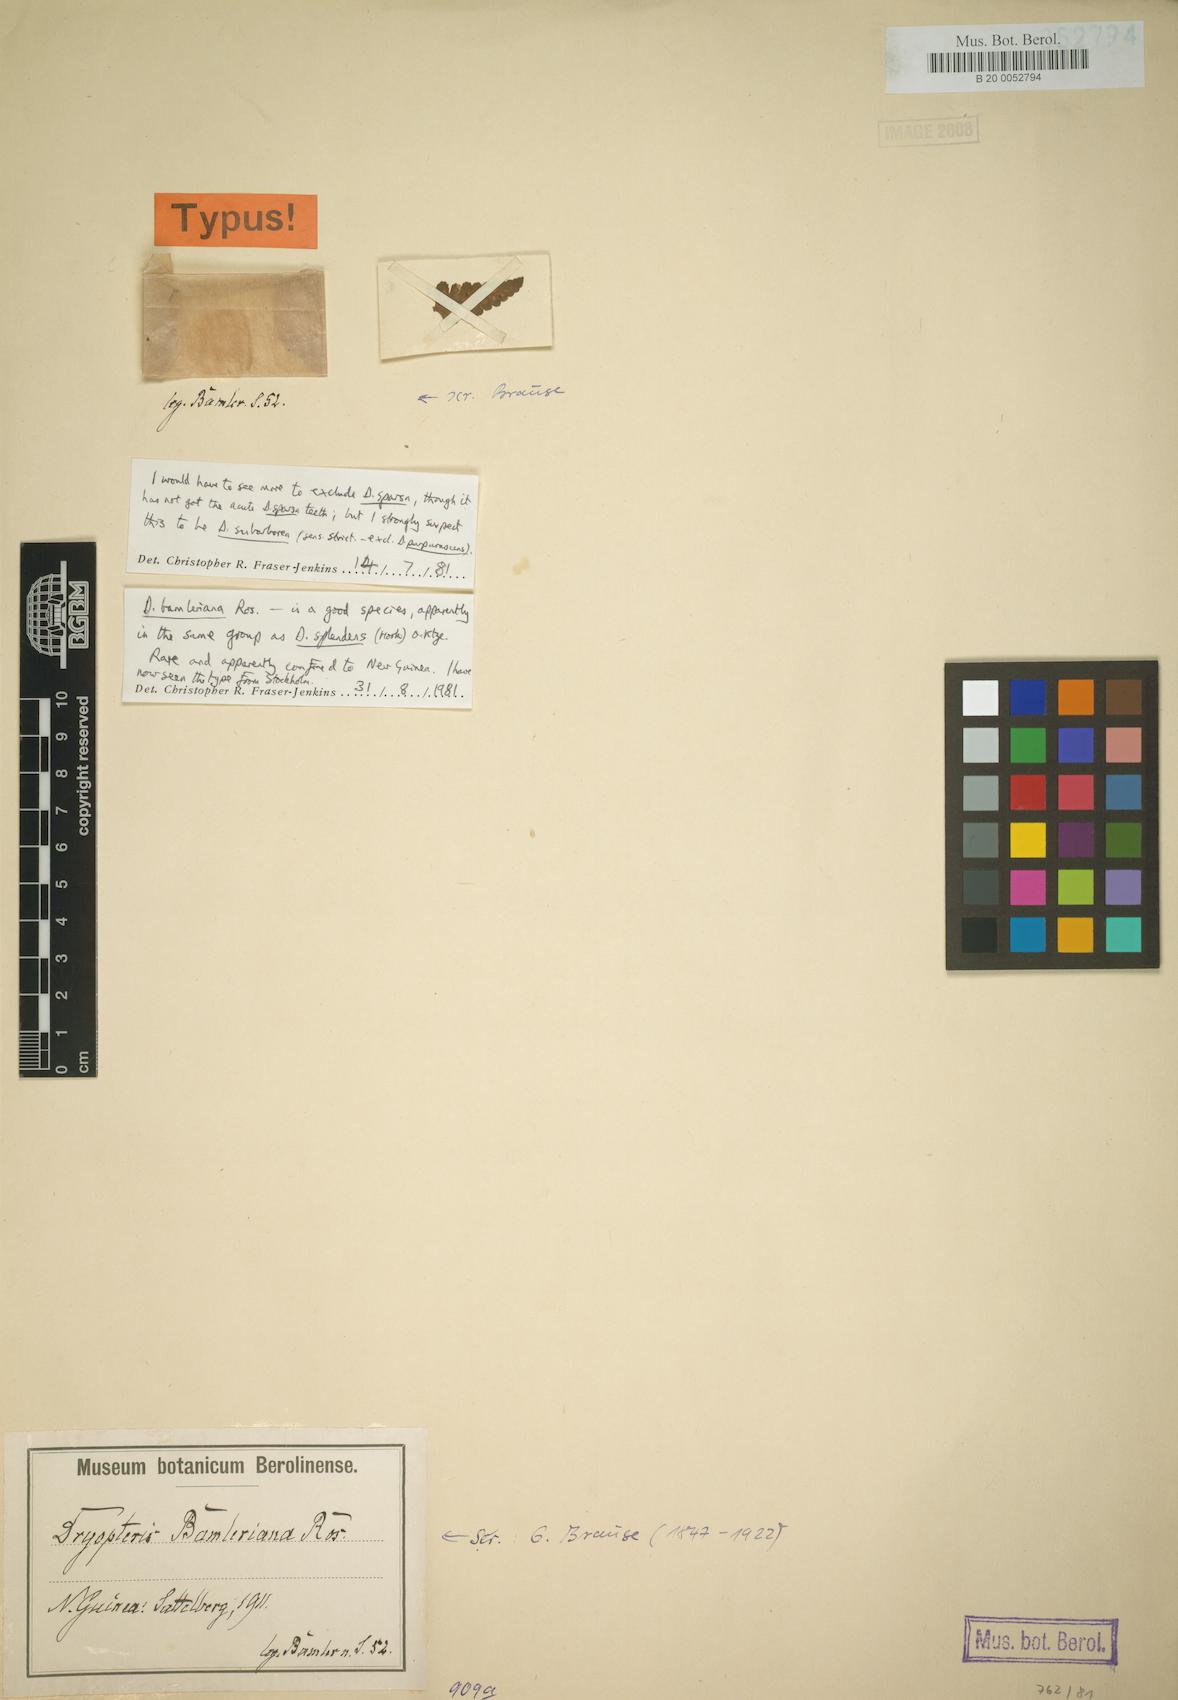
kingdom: Plantae
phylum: Tracheophyta
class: Polypodiopsida
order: Polypodiales
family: Dryopteridaceae
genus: Dryopteris
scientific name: Dryopteris bamleriana
